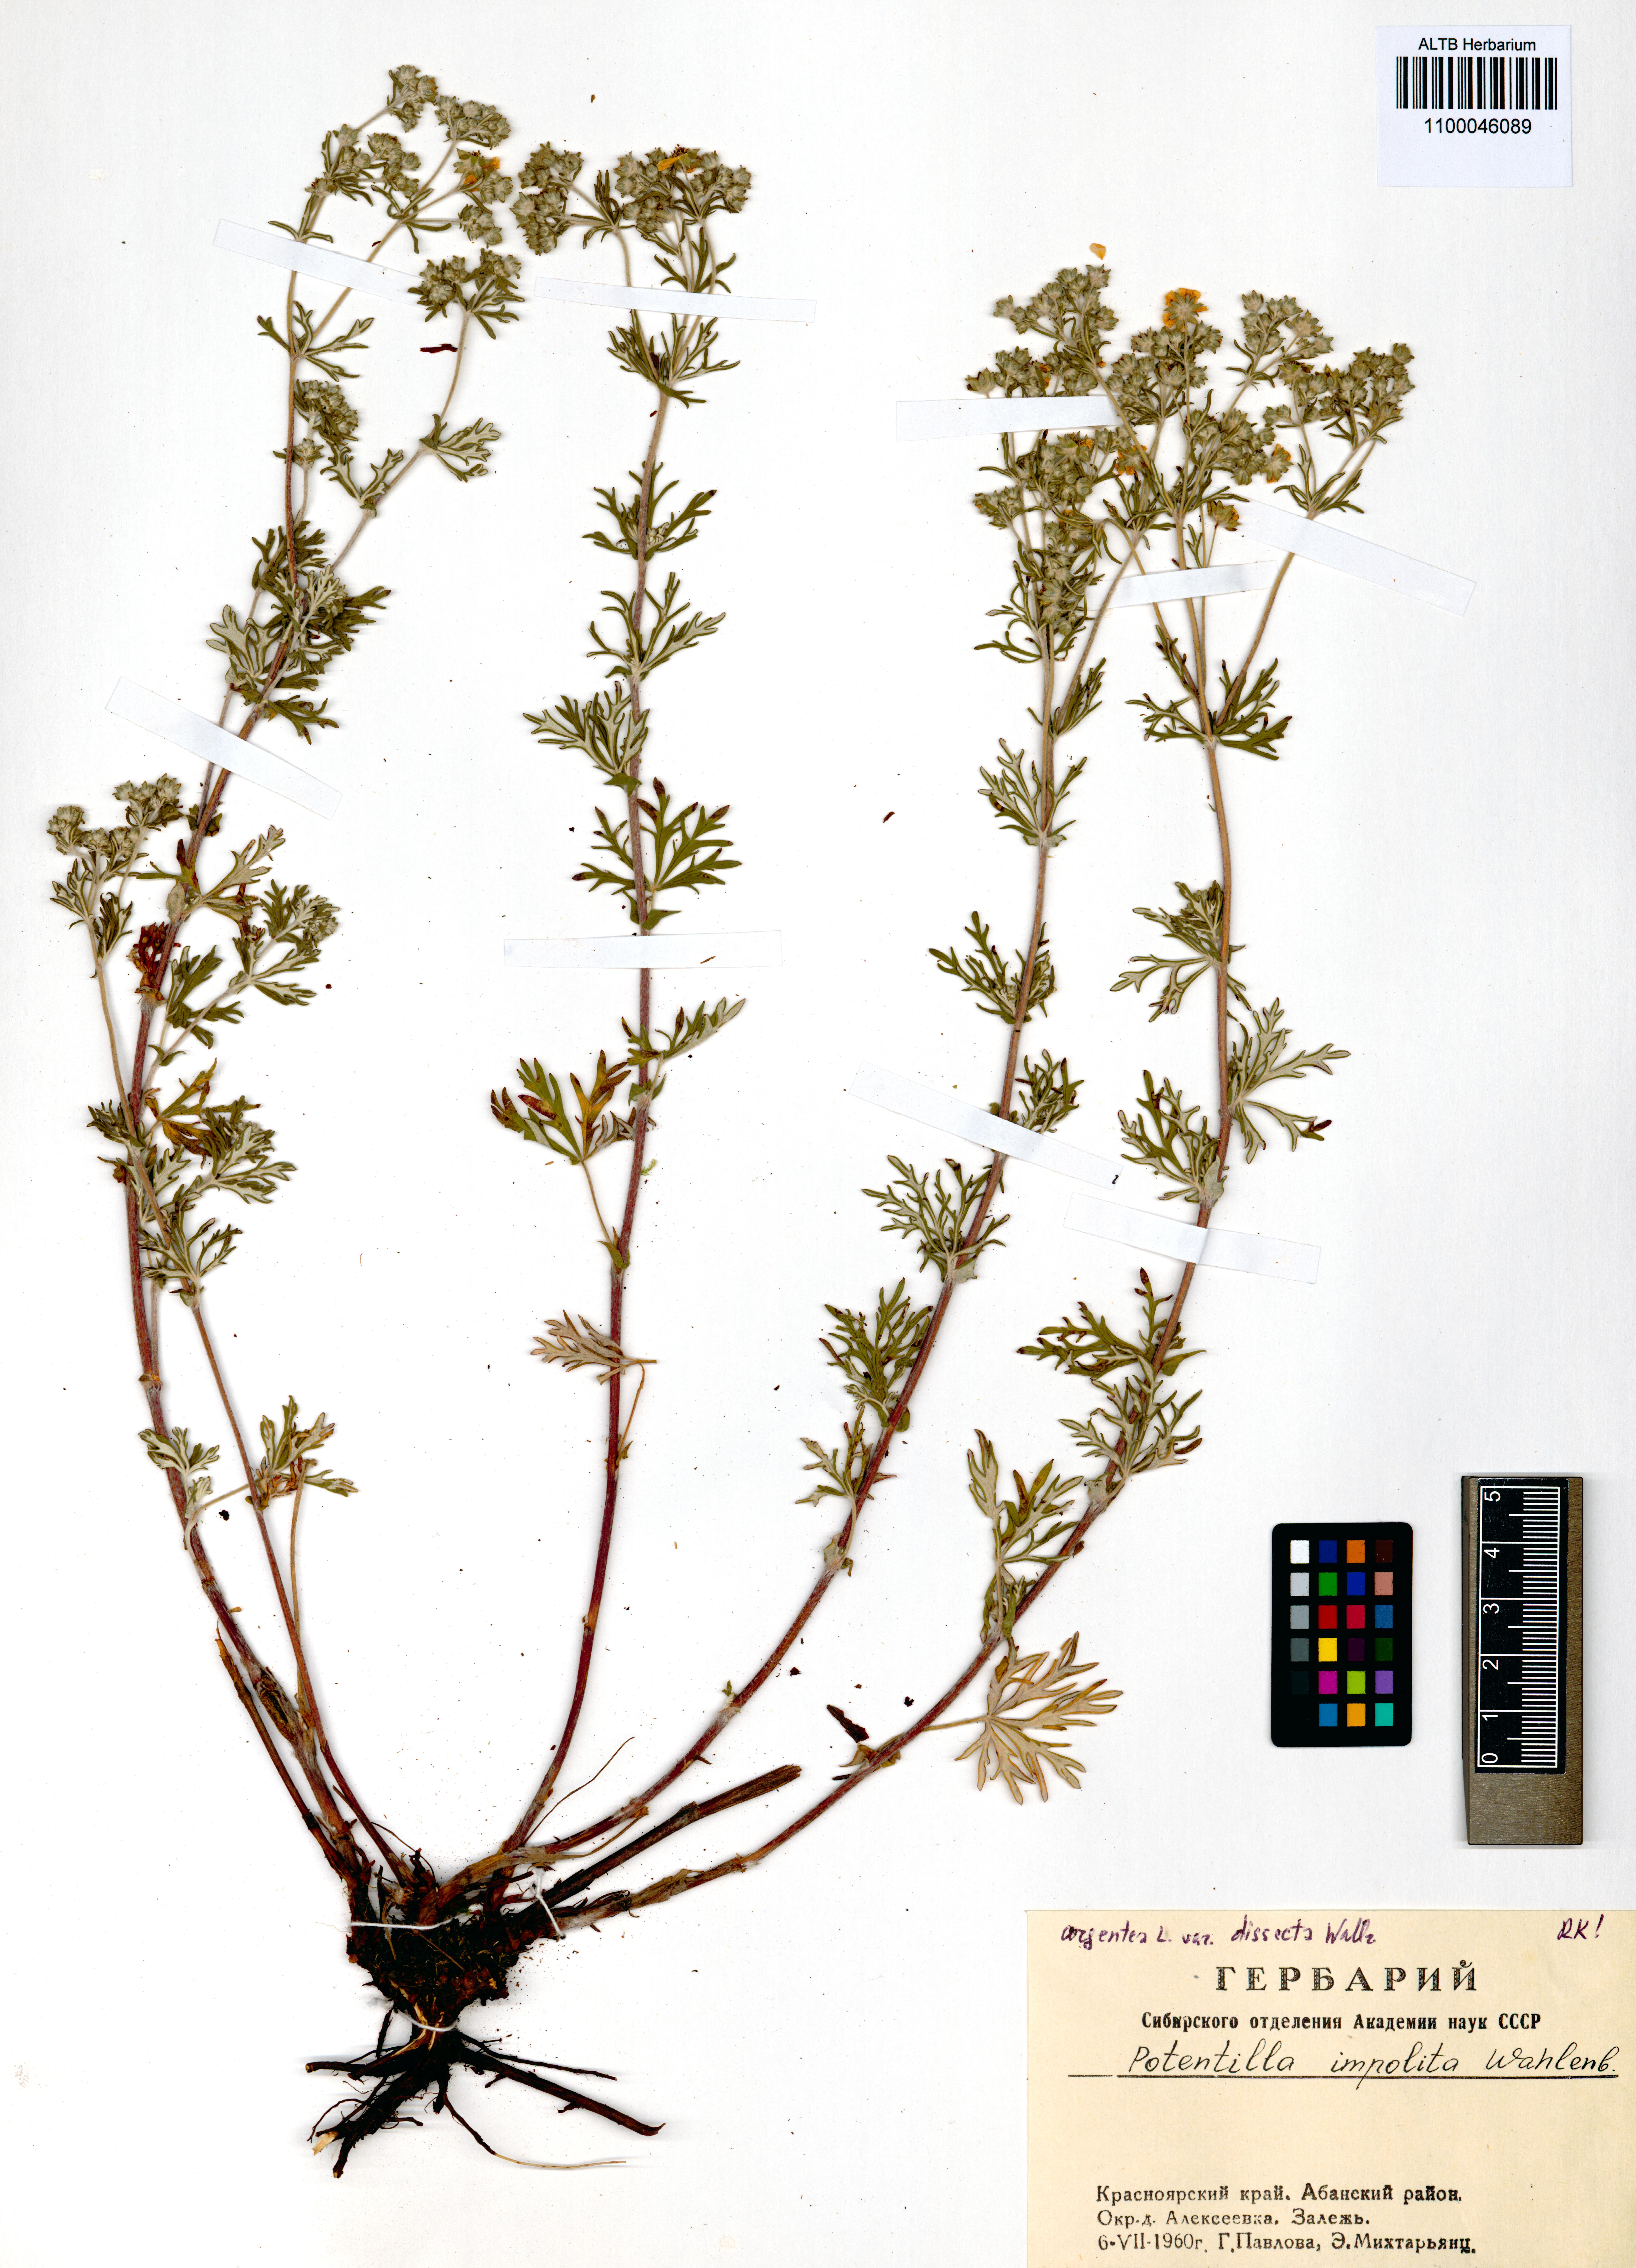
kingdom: Plantae
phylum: Tracheophyta
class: Magnoliopsida
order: Rosales
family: Rosaceae
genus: Potentilla
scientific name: Potentilla argentea
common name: Hoary cinquefoil
